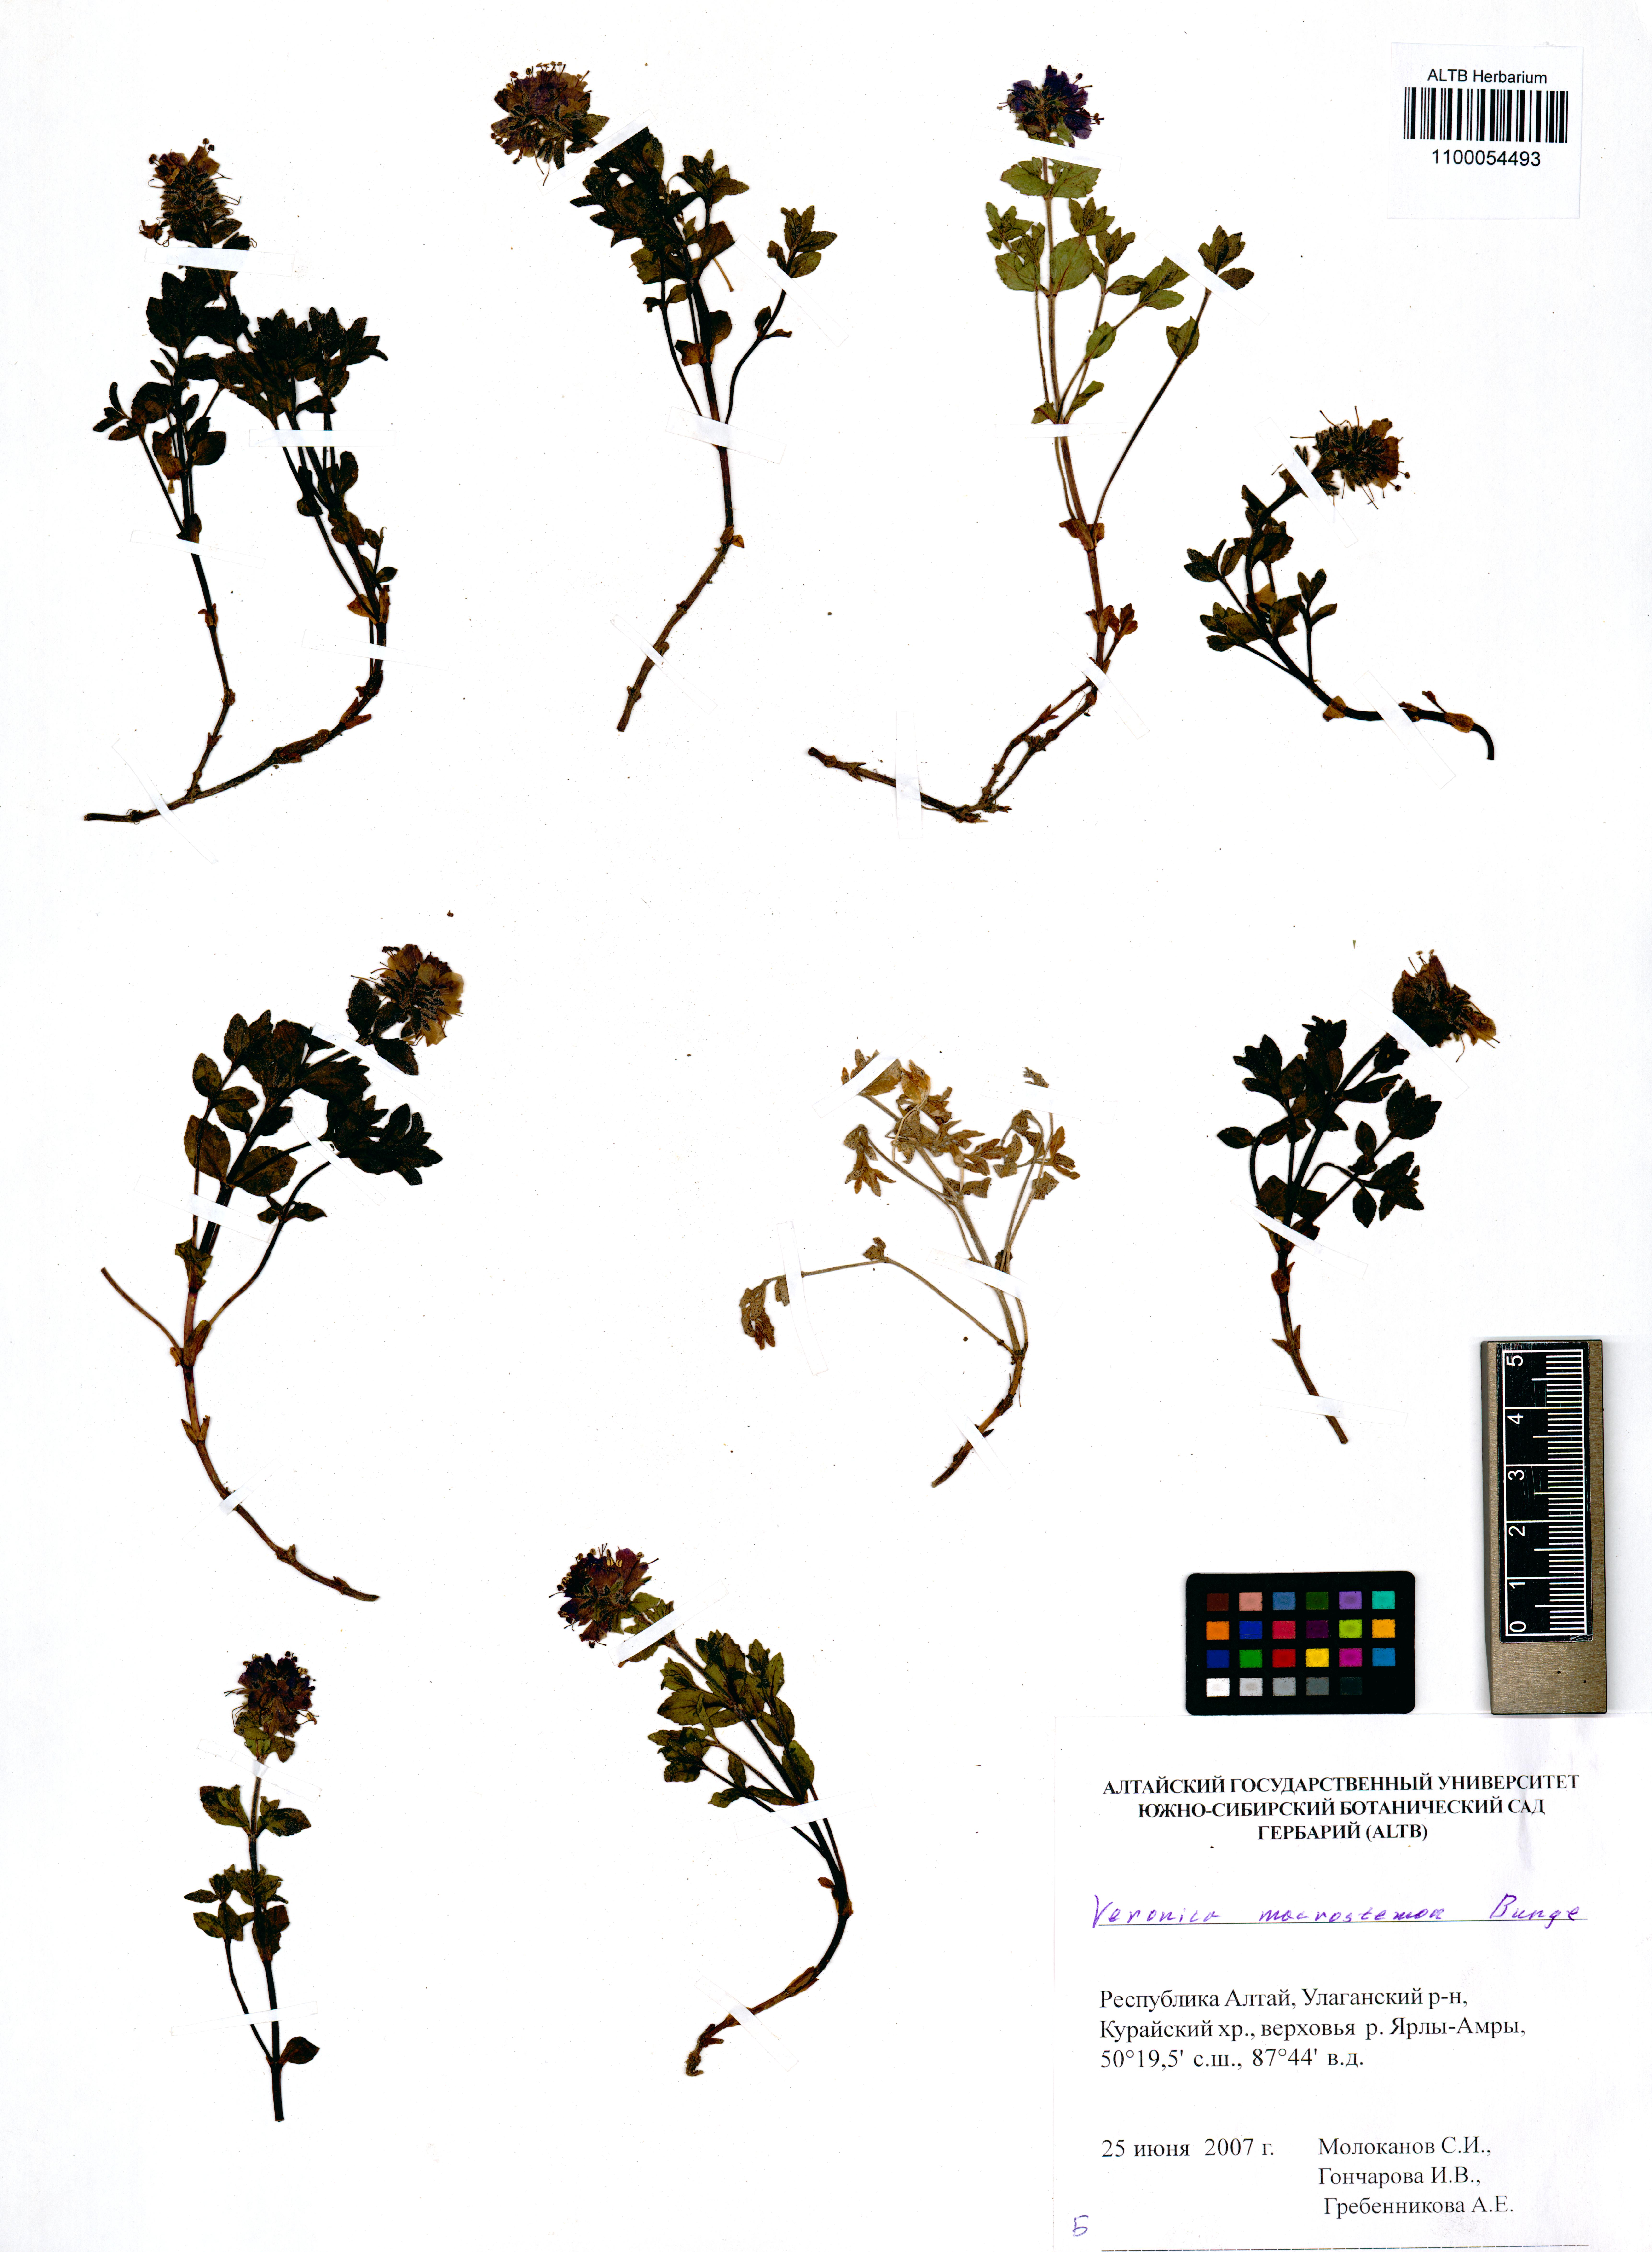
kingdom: Plantae
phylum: Tracheophyta
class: Magnoliopsida
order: Lamiales
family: Plantaginaceae
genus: Veronica
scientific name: Veronica macrostemon
